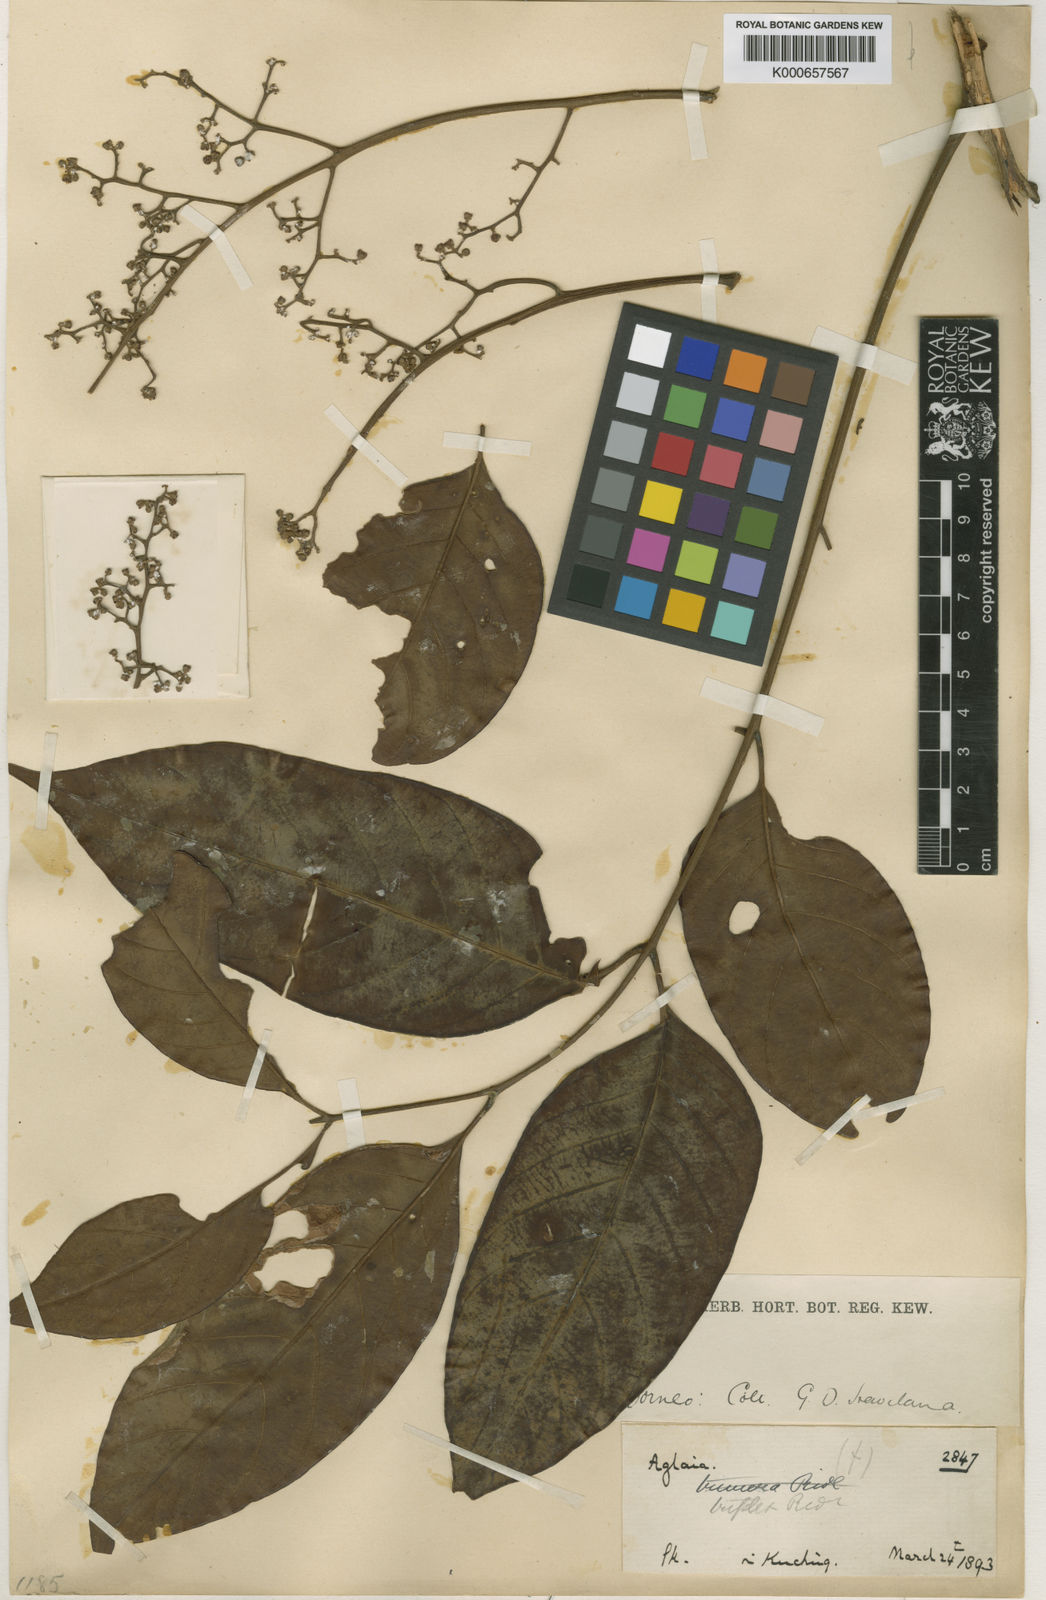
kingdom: Plantae
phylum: Tracheophyta
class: Magnoliopsida
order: Sapindales
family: Meliaceae
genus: Aglaia
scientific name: Aglaia macrocarpa
